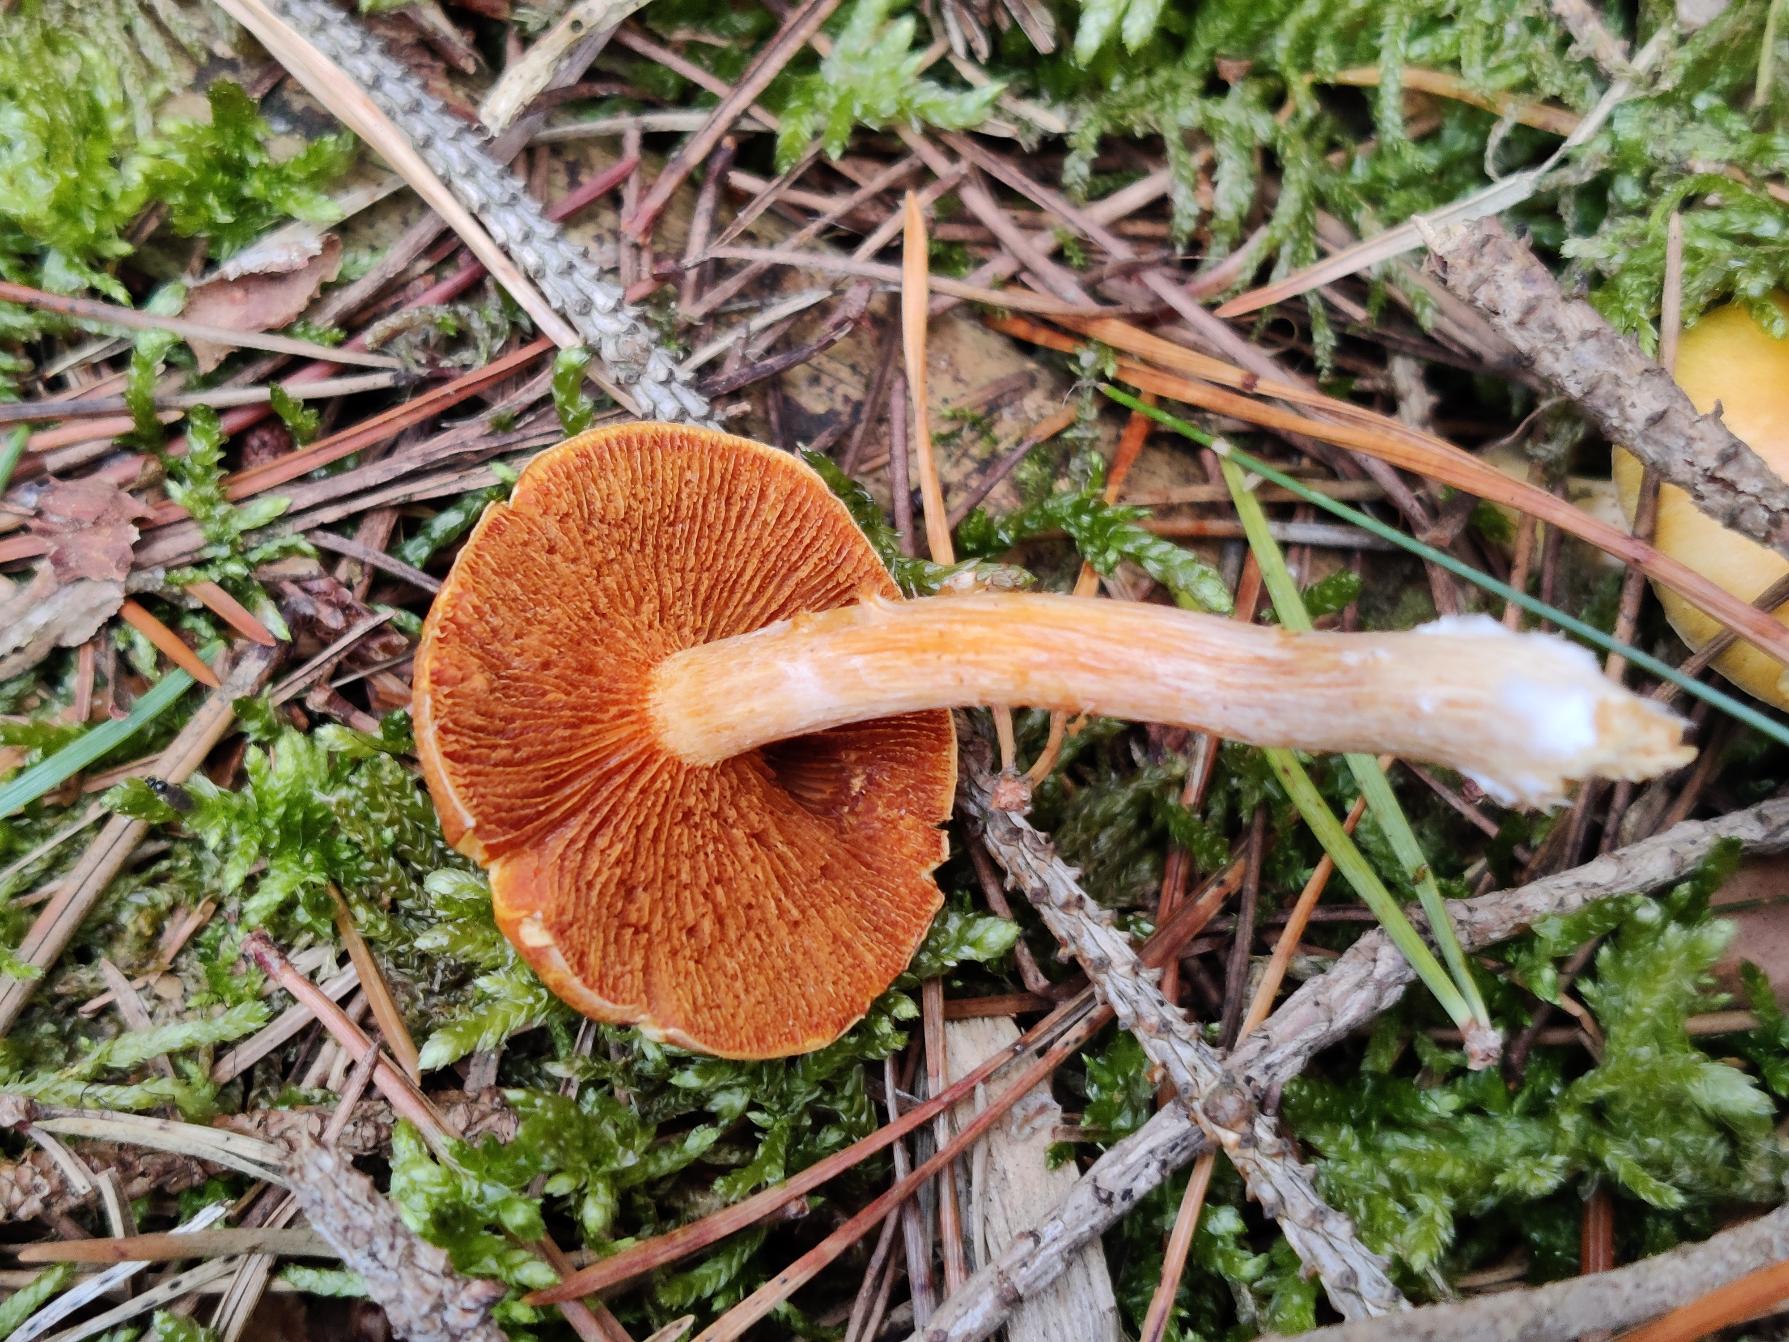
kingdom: Fungi
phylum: Basidiomycota
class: Agaricomycetes
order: Agaricales
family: Hymenogastraceae
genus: Gymnopilus
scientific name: Gymnopilus penetrans
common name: Plettet flammehat
